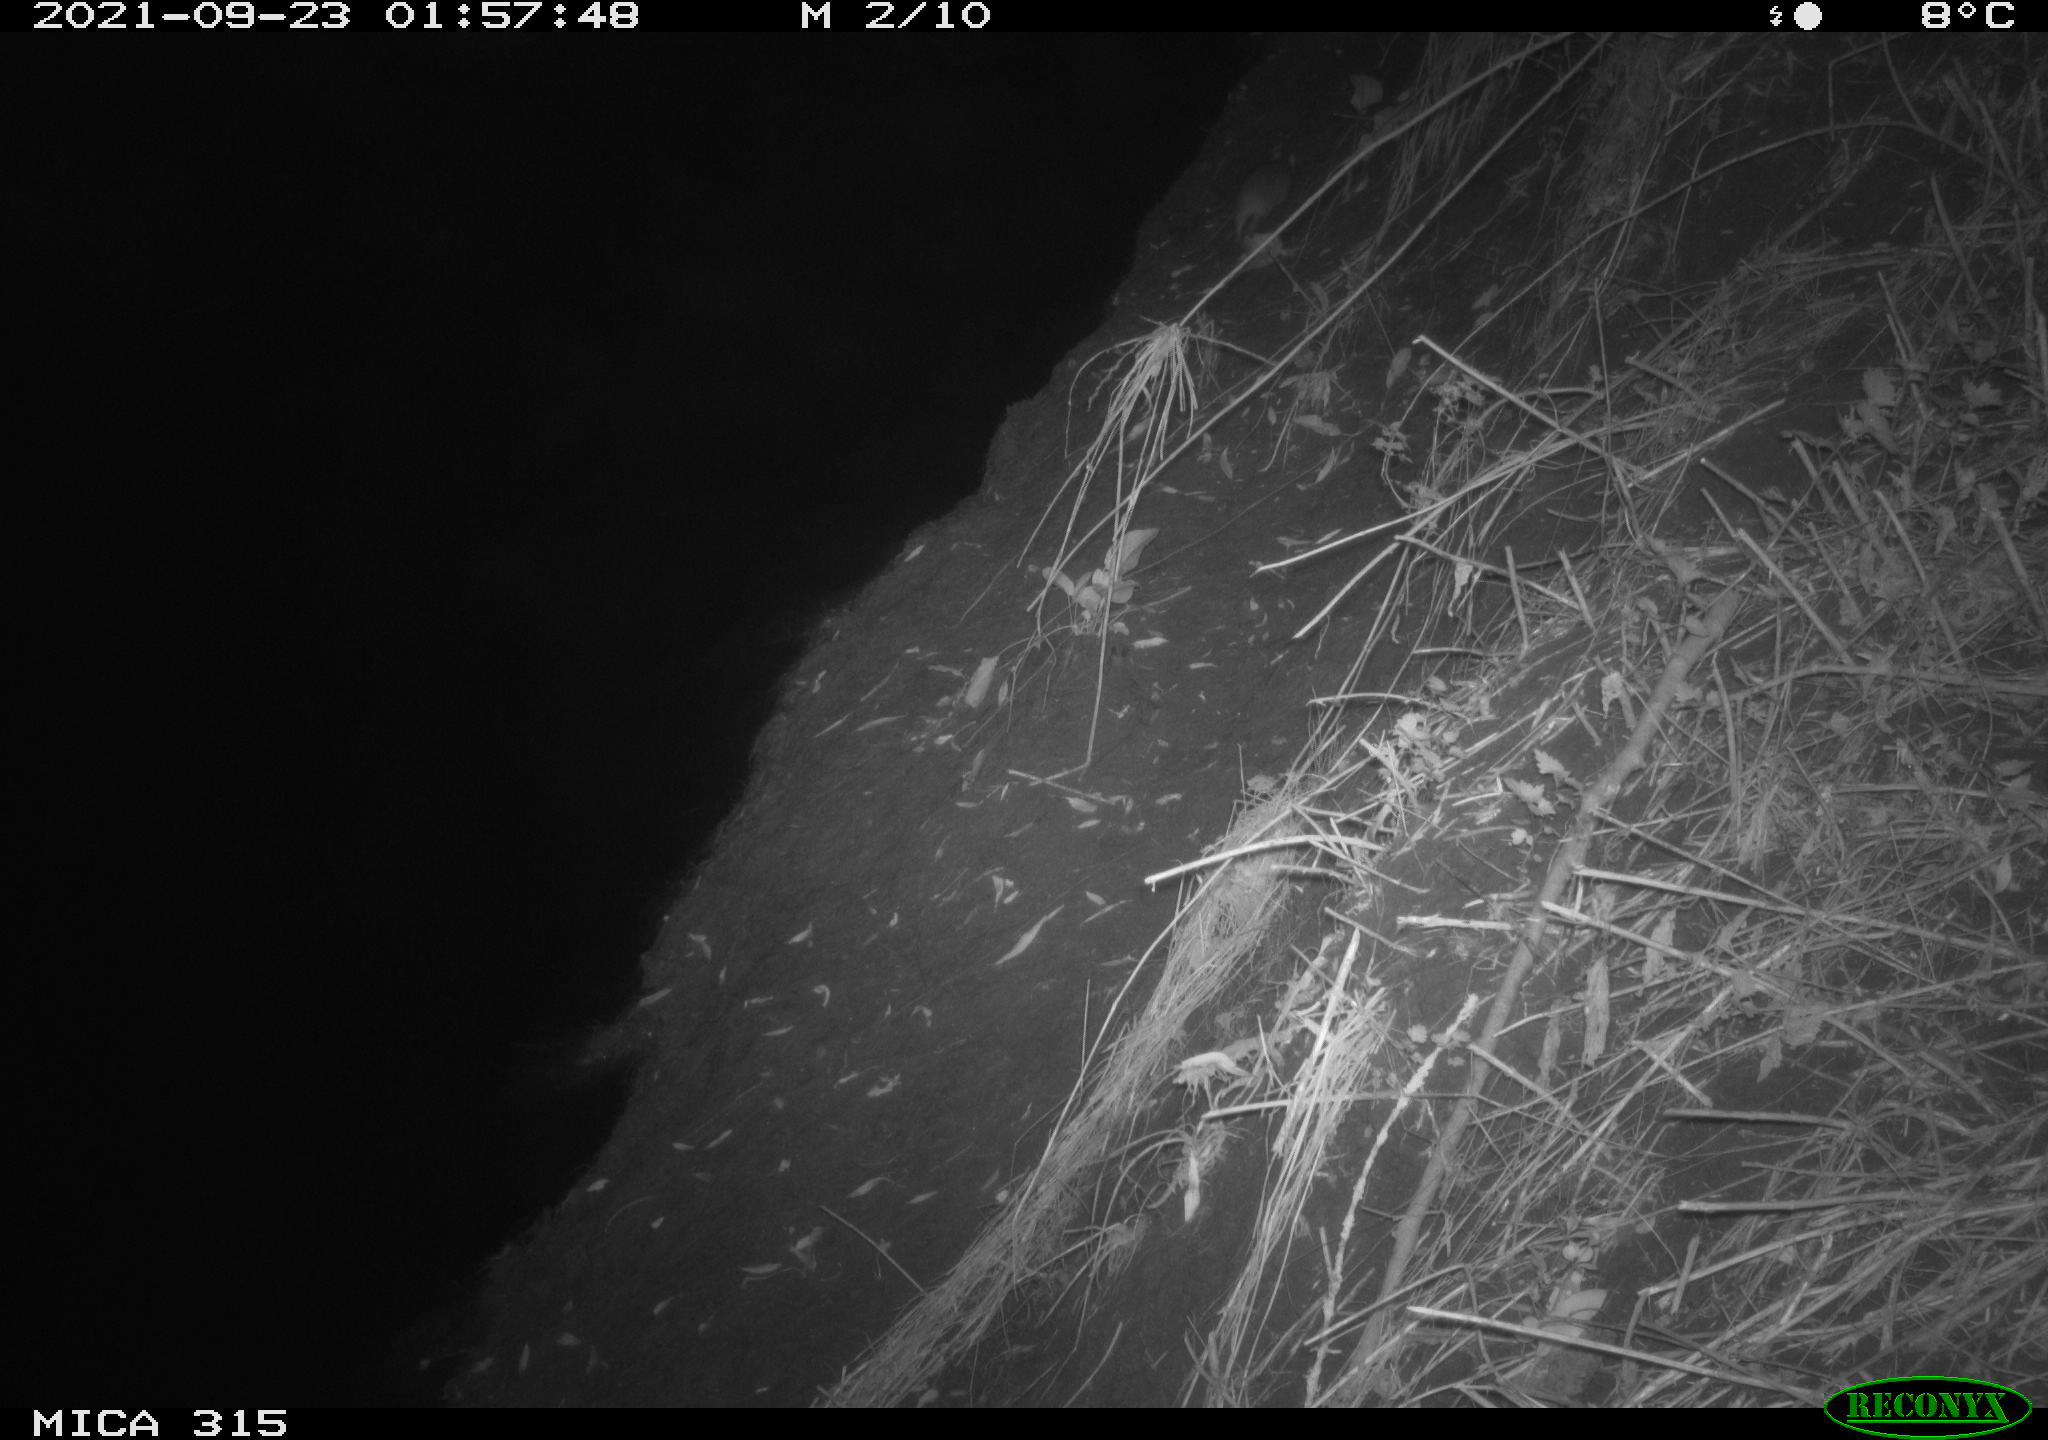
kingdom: Animalia
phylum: Chordata
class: Mammalia
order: Rodentia
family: Muridae
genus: Rattus
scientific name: Rattus norvegicus
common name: Brown rat
